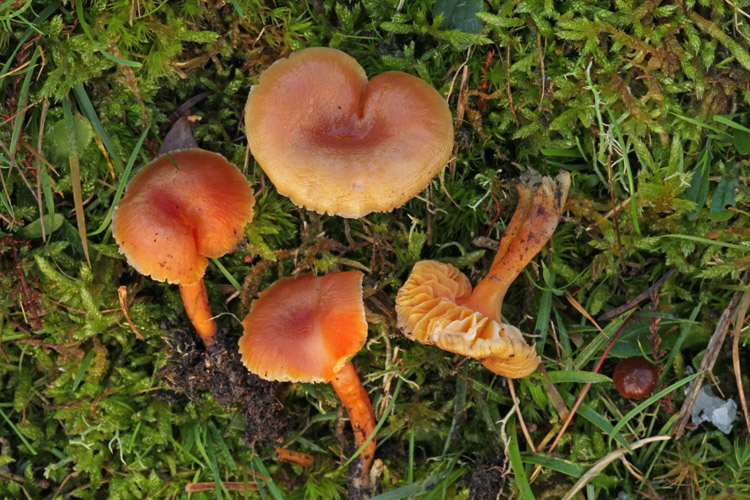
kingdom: Fungi
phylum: Basidiomycota
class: Agaricomycetes
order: Agaricales
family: Hygrophoraceae
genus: Hygrocybe
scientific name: Hygrocybe miniata
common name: mønje-vokshat
